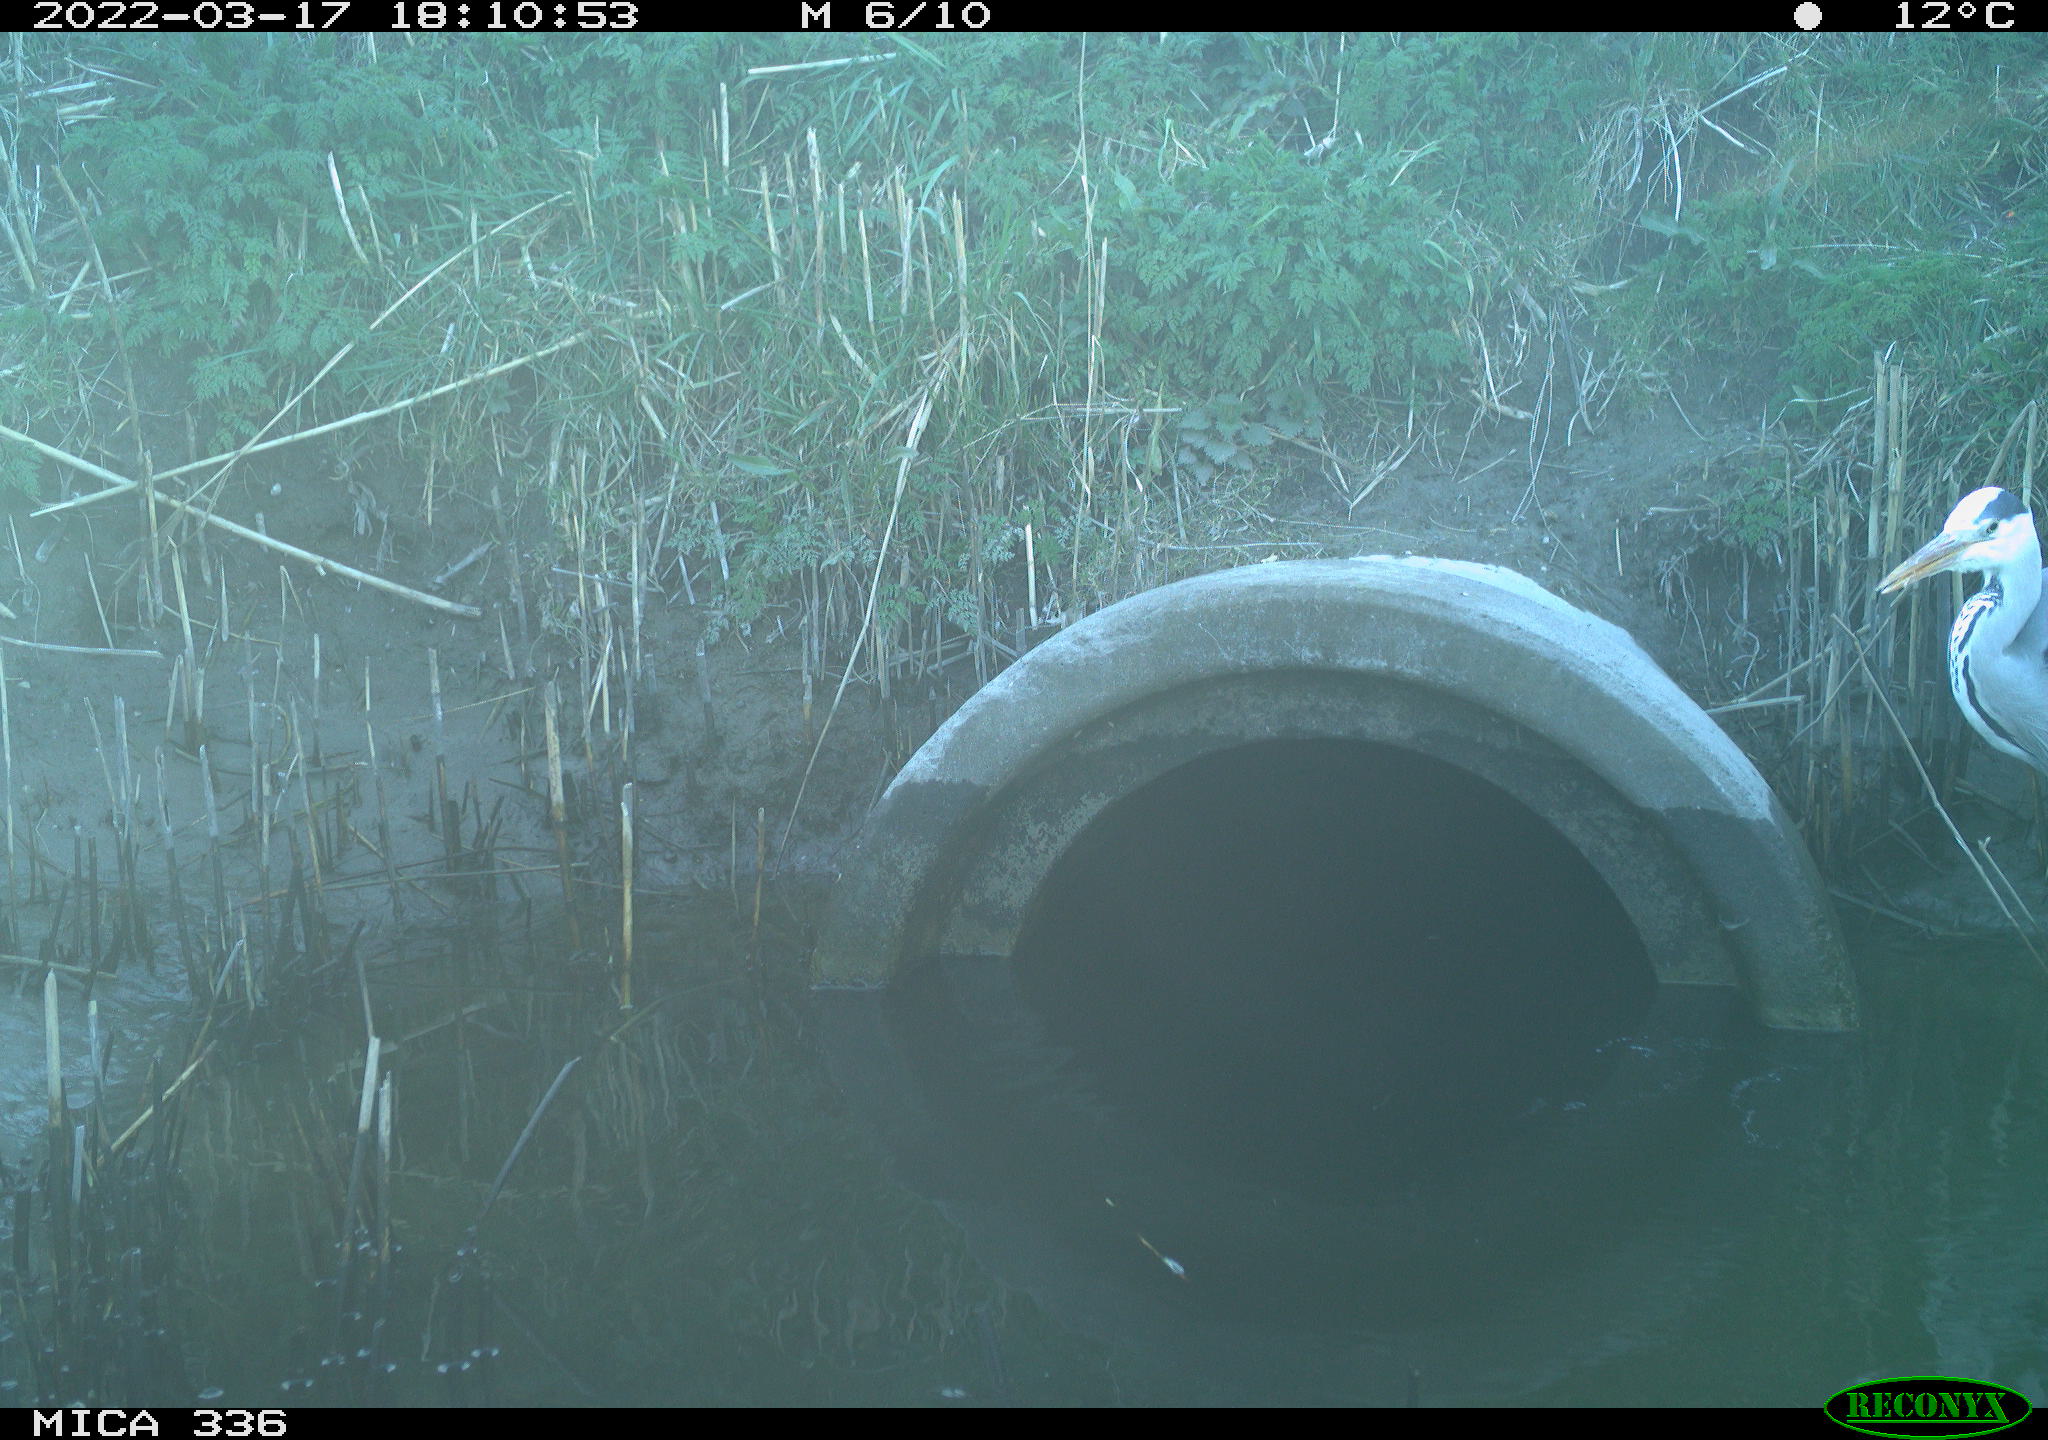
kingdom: Animalia
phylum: Chordata
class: Aves
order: Pelecaniformes
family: Ardeidae
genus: Ardea
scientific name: Ardea cinerea
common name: Grey heron
